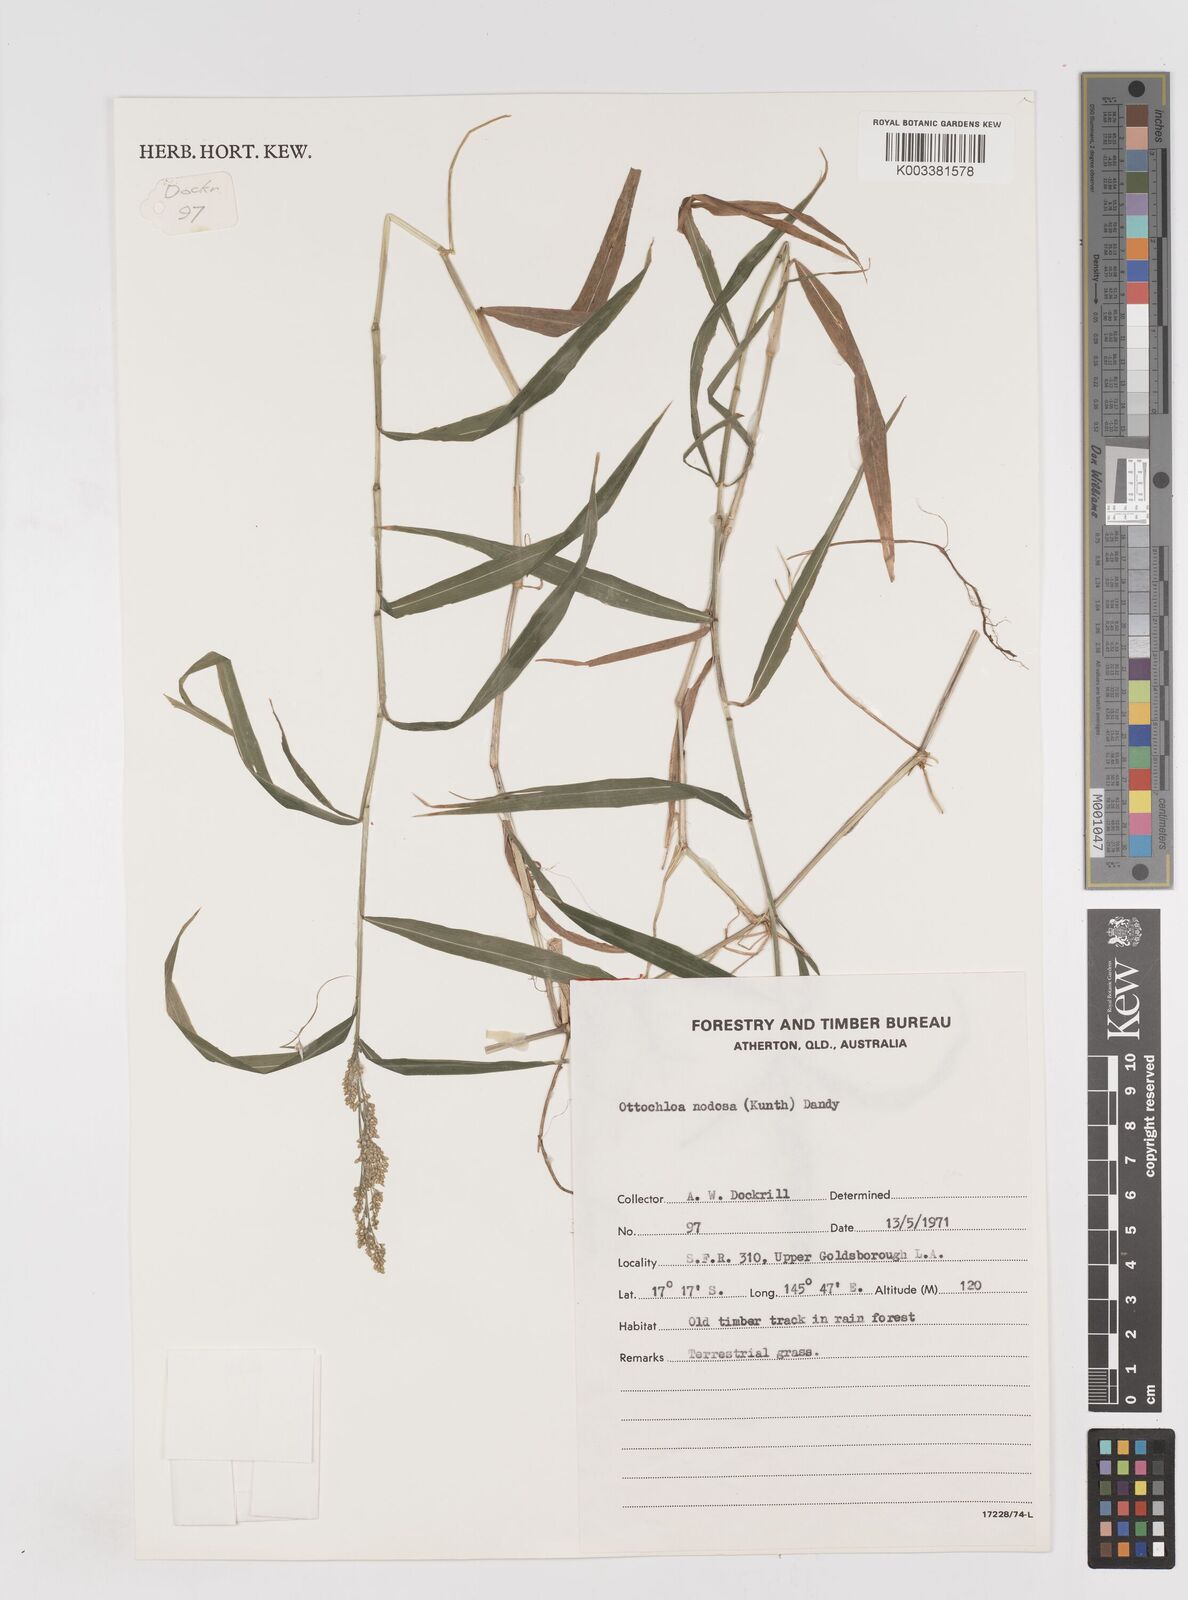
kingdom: Plantae
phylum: Tracheophyta
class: Liliopsida
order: Poales
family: Poaceae
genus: Ottochloa
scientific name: Ottochloa nodosa
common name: Slender-panic grass
